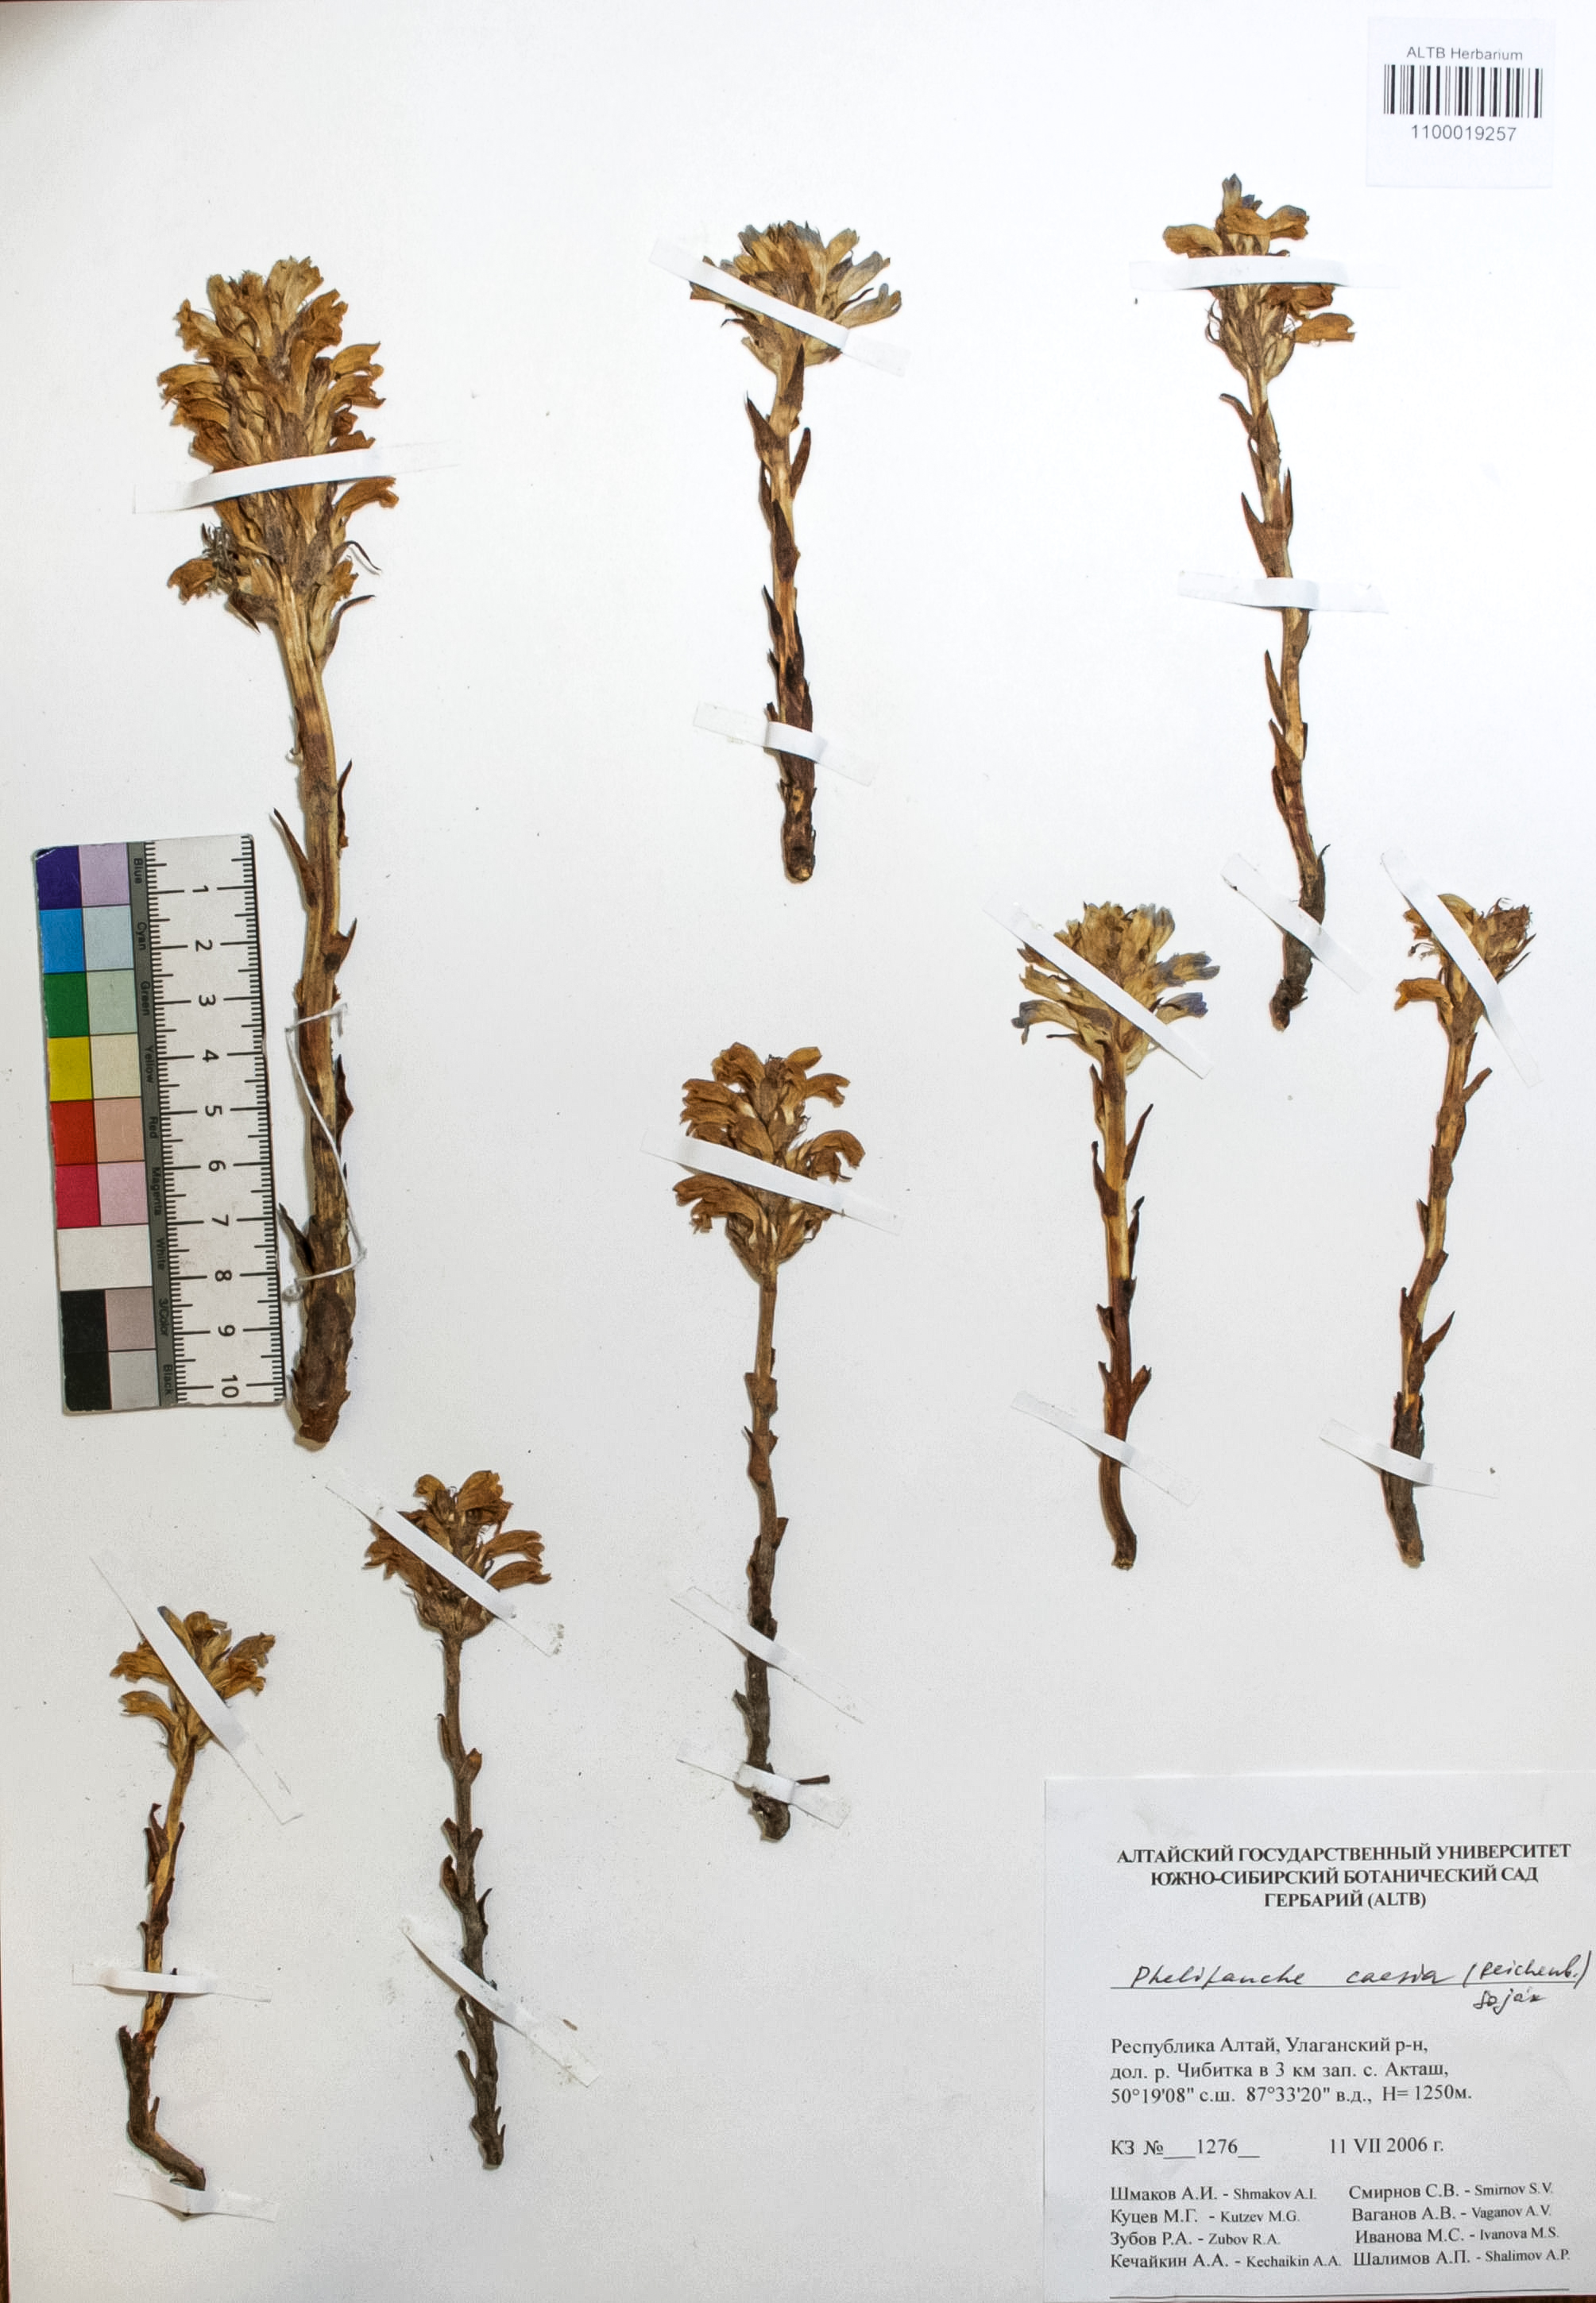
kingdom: Plantae
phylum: Tracheophyta
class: Magnoliopsida
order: Lamiales
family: Orobanchaceae
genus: Phelipanche
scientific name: Phelipanche caesia
